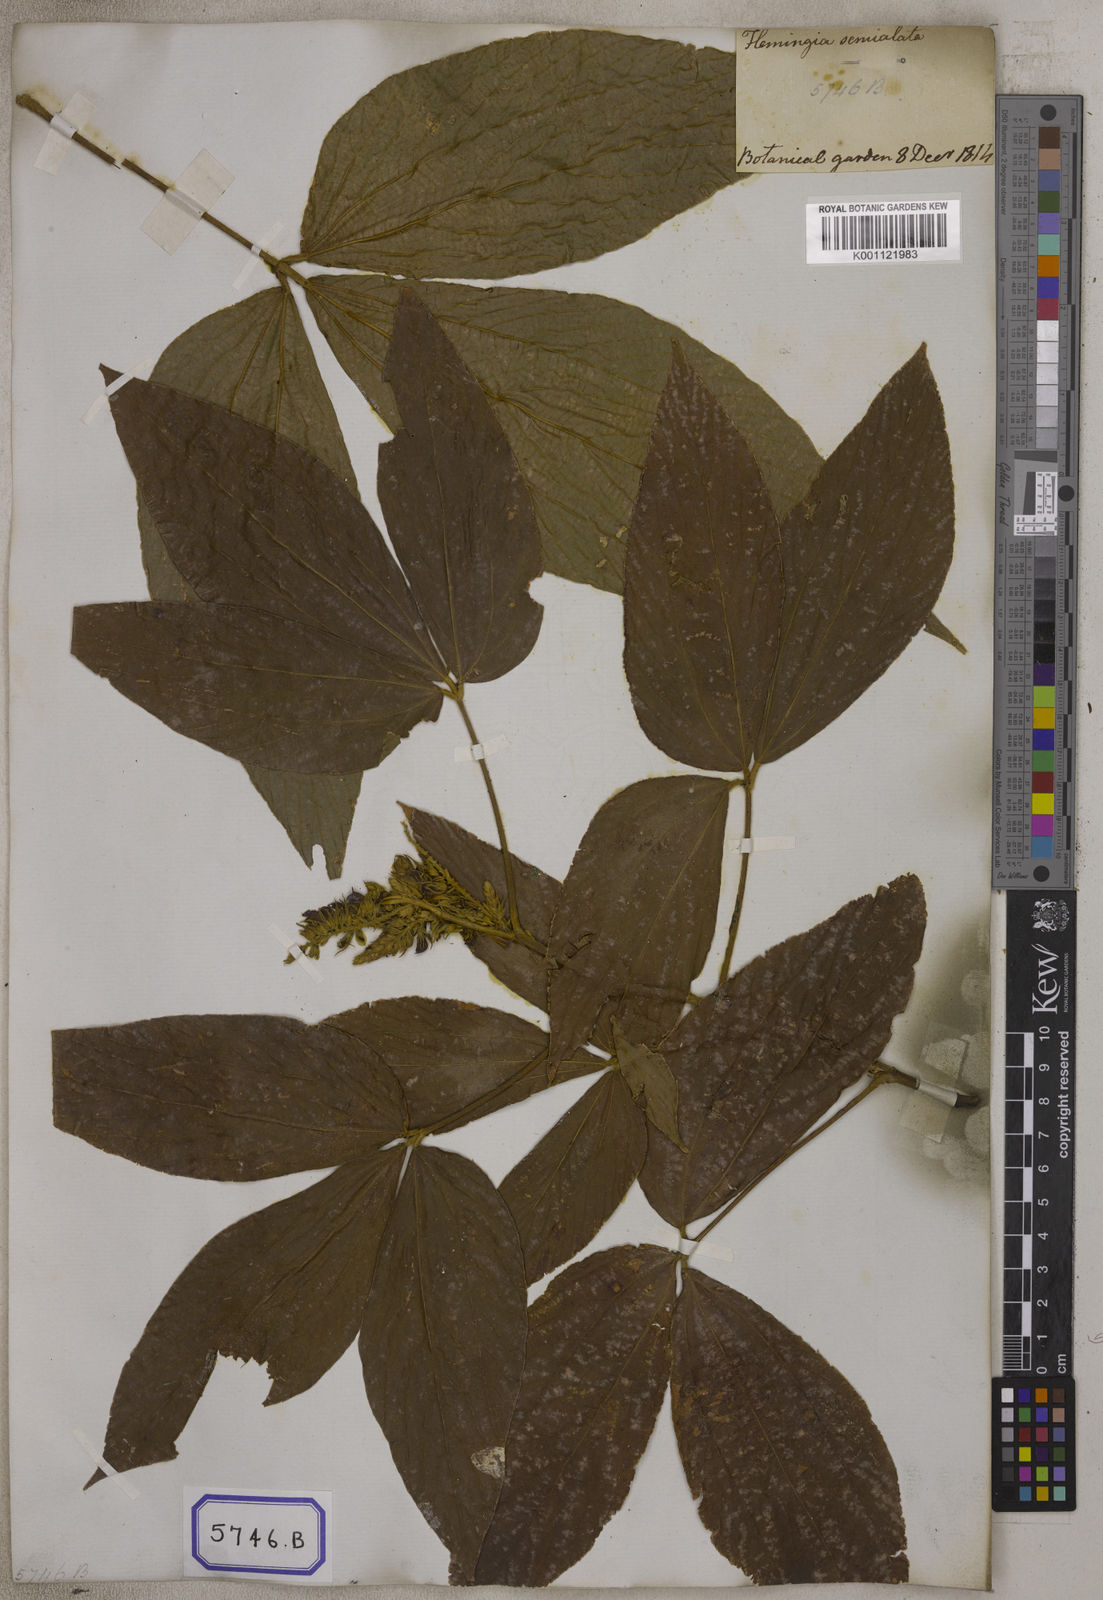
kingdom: Plantae
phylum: Tracheophyta
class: Magnoliopsida
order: Fabales
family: Fabaceae
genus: Flemingia
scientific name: Flemingia
